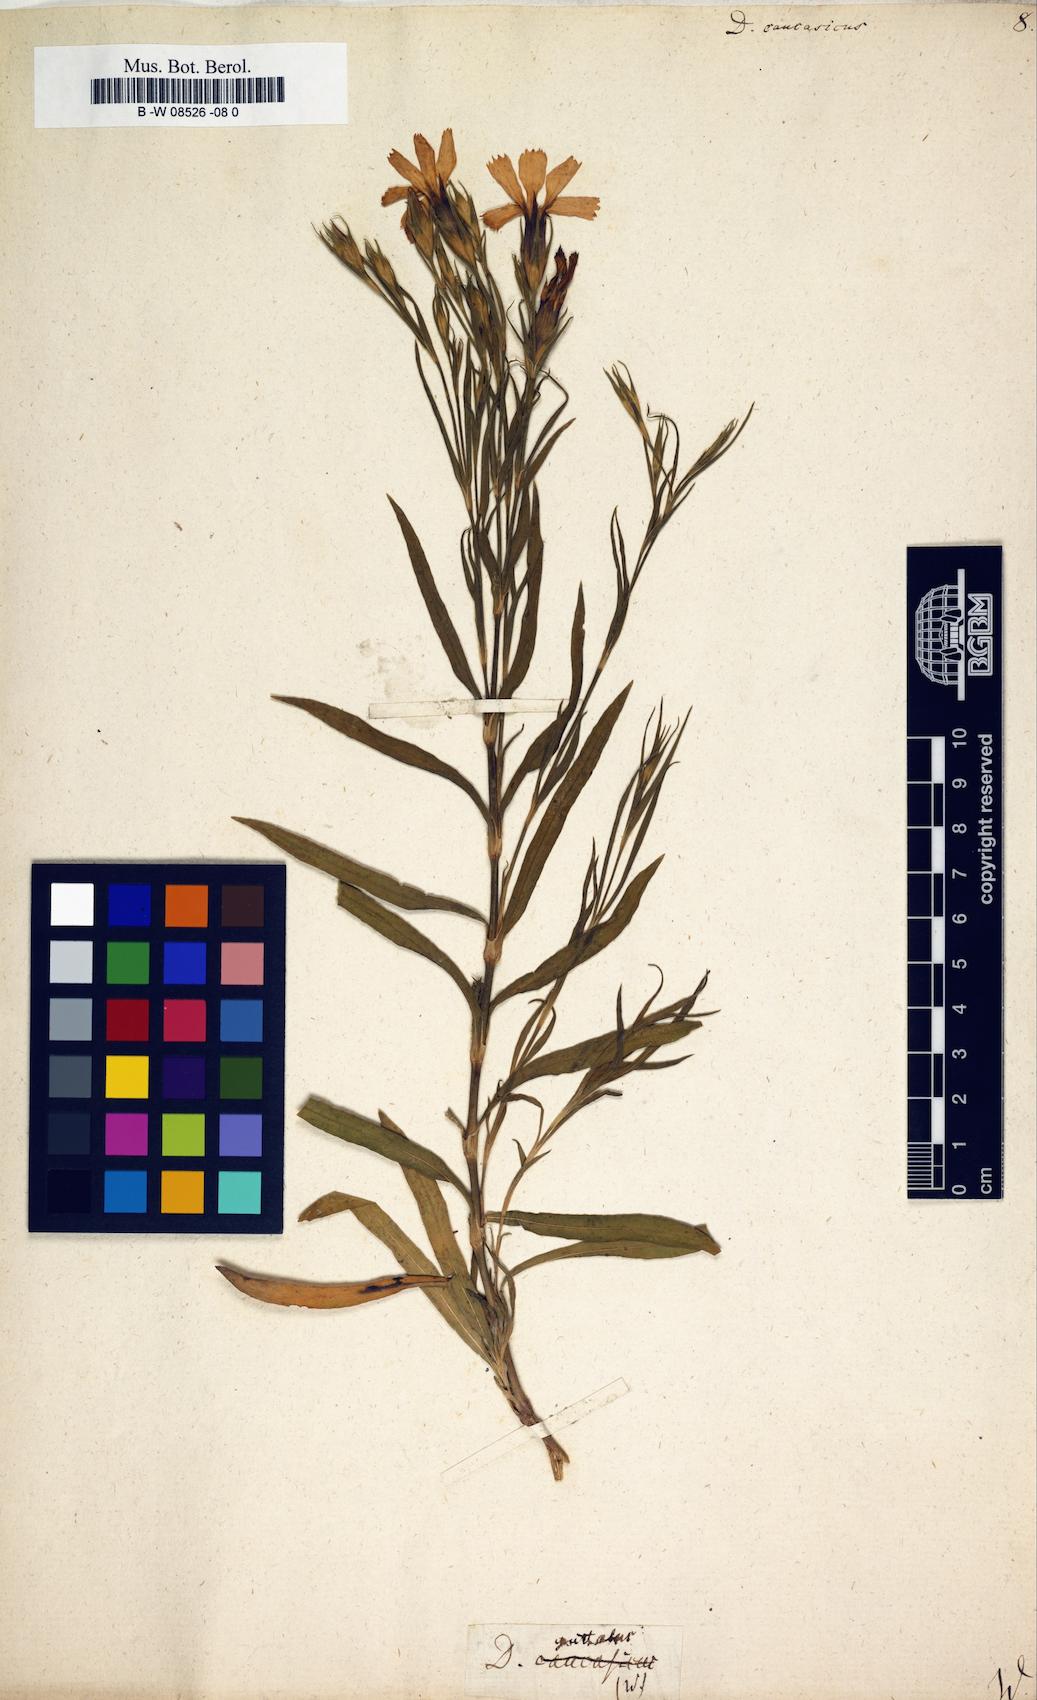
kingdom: Plantae
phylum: Tracheophyta
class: Magnoliopsida
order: Caryophyllales
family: Caryophyllaceae
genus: Dianthus
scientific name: Dianthus
